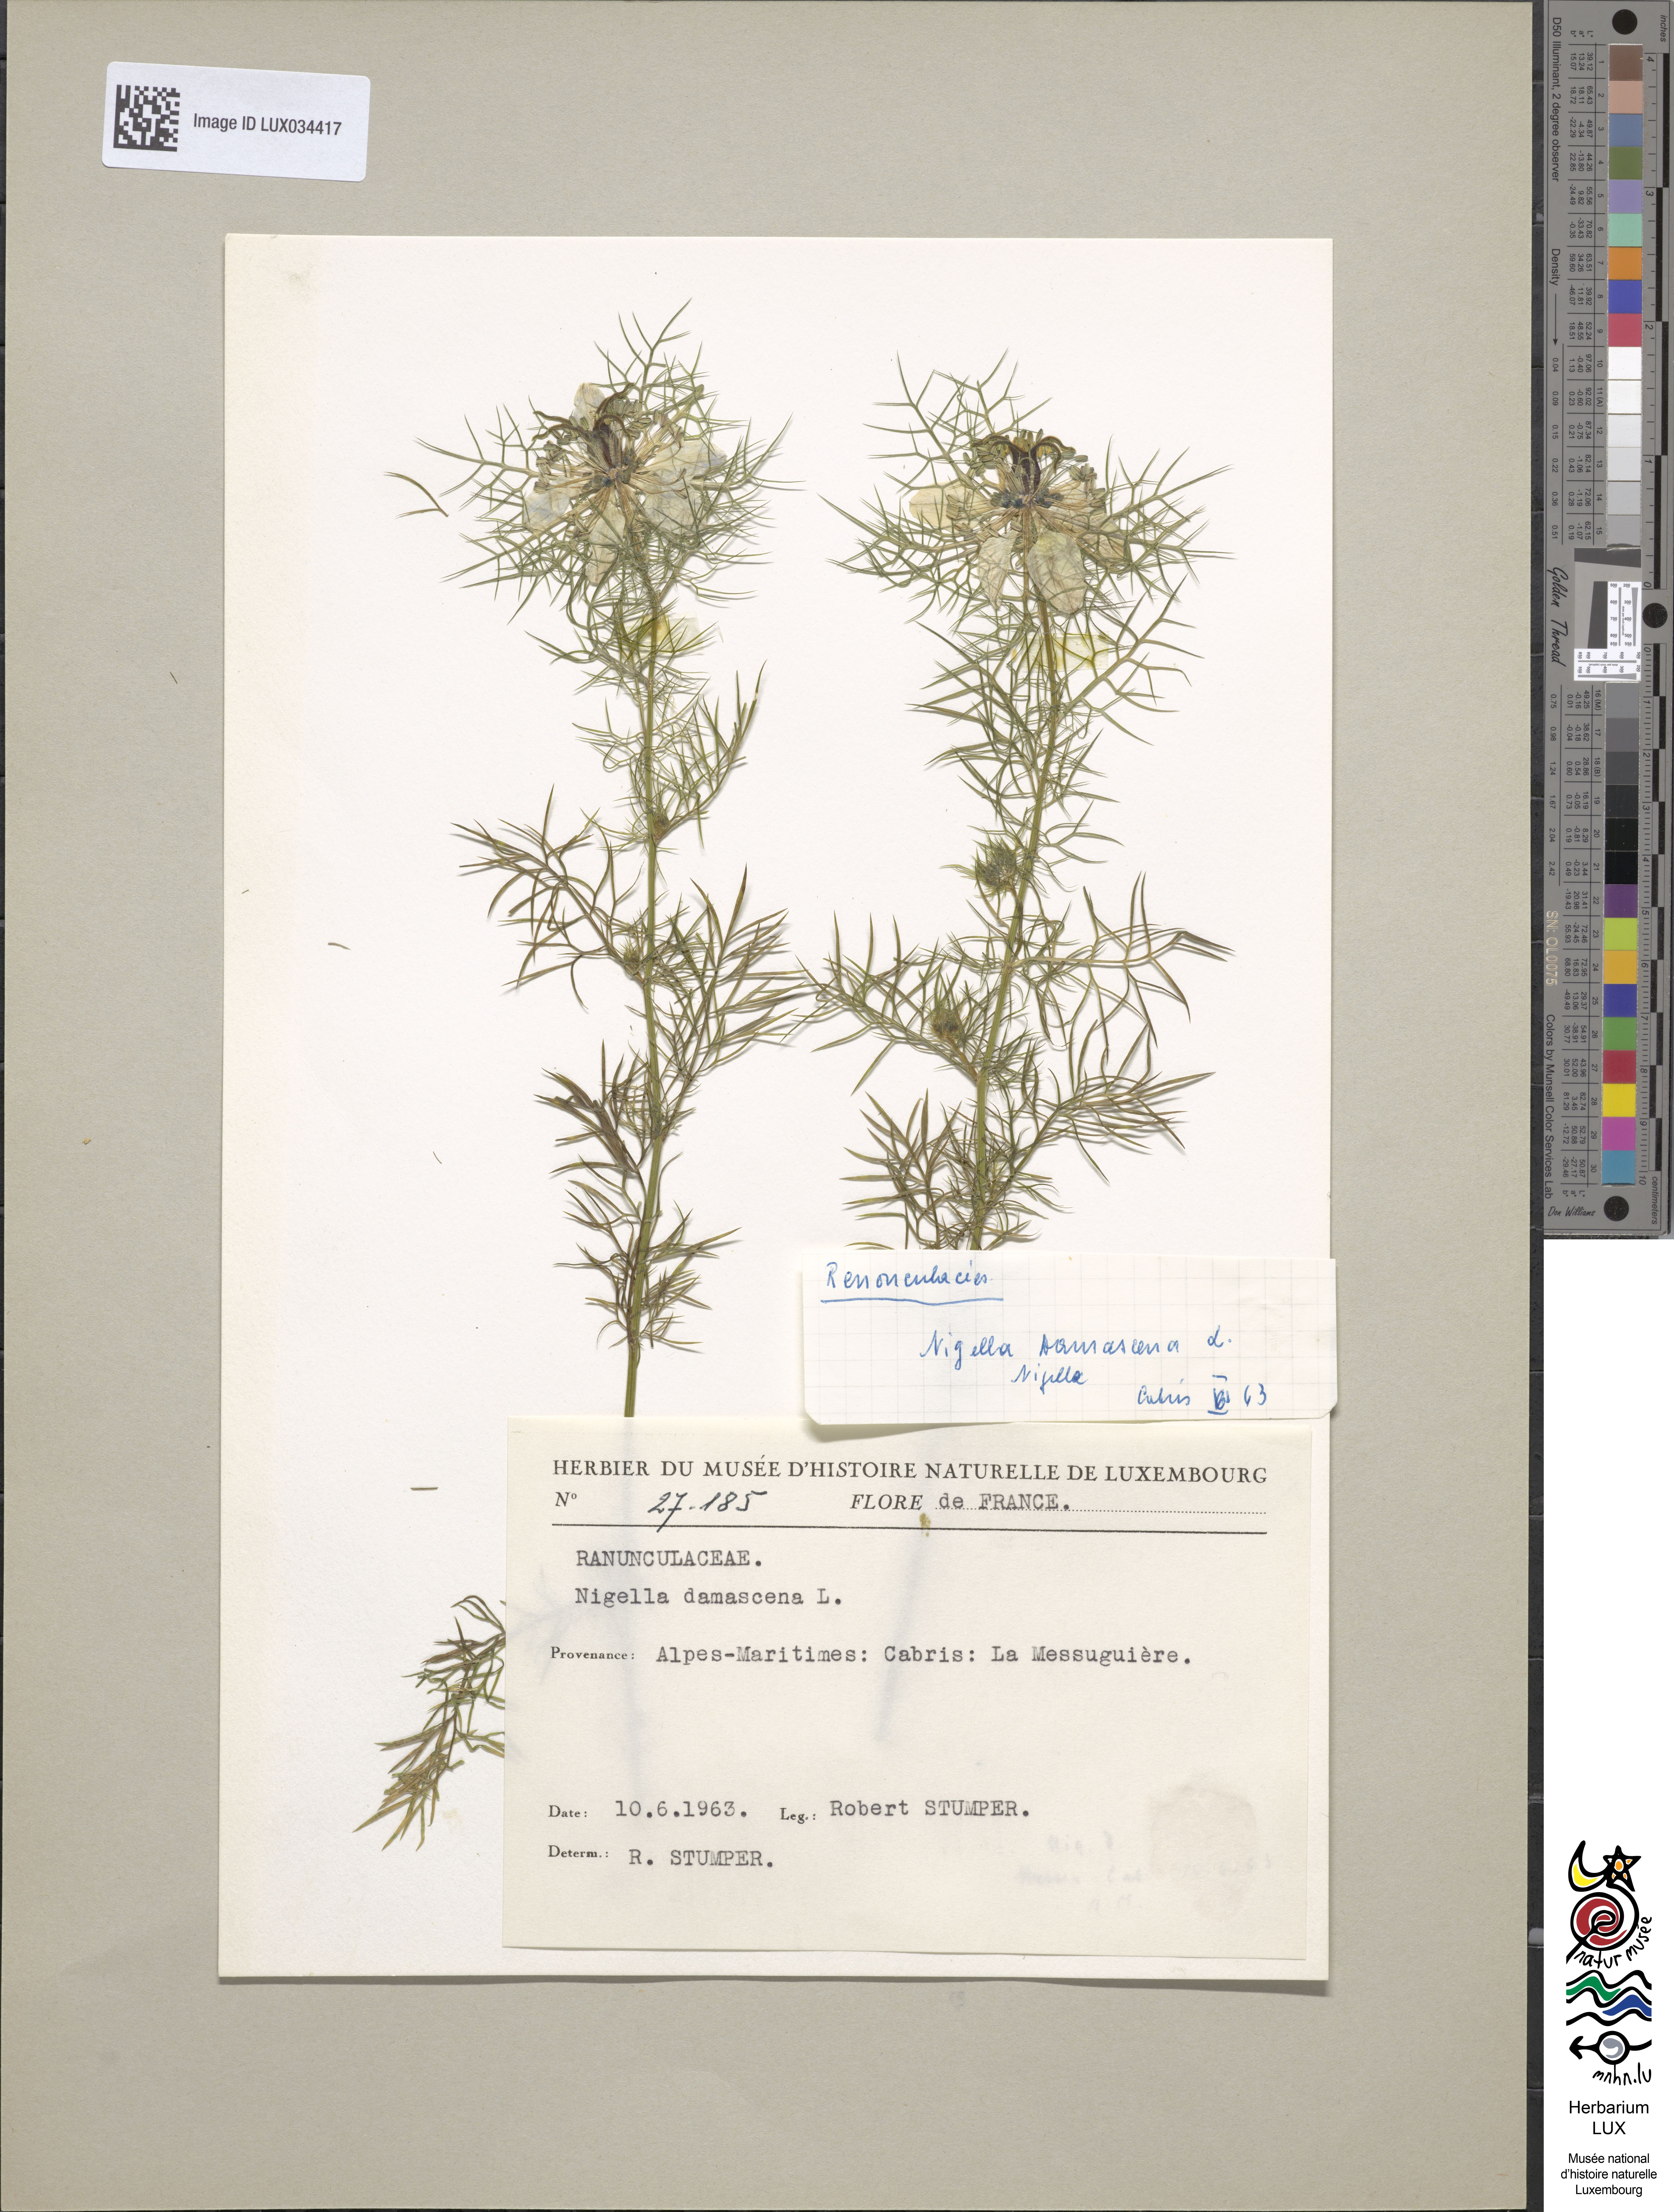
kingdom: Plantae
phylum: Tracheophyta
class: Magnoliopsida
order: Ranunculales
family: Ranunculaceae
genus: Nigella
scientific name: Nigella damascena
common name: Love-in-a-mist
